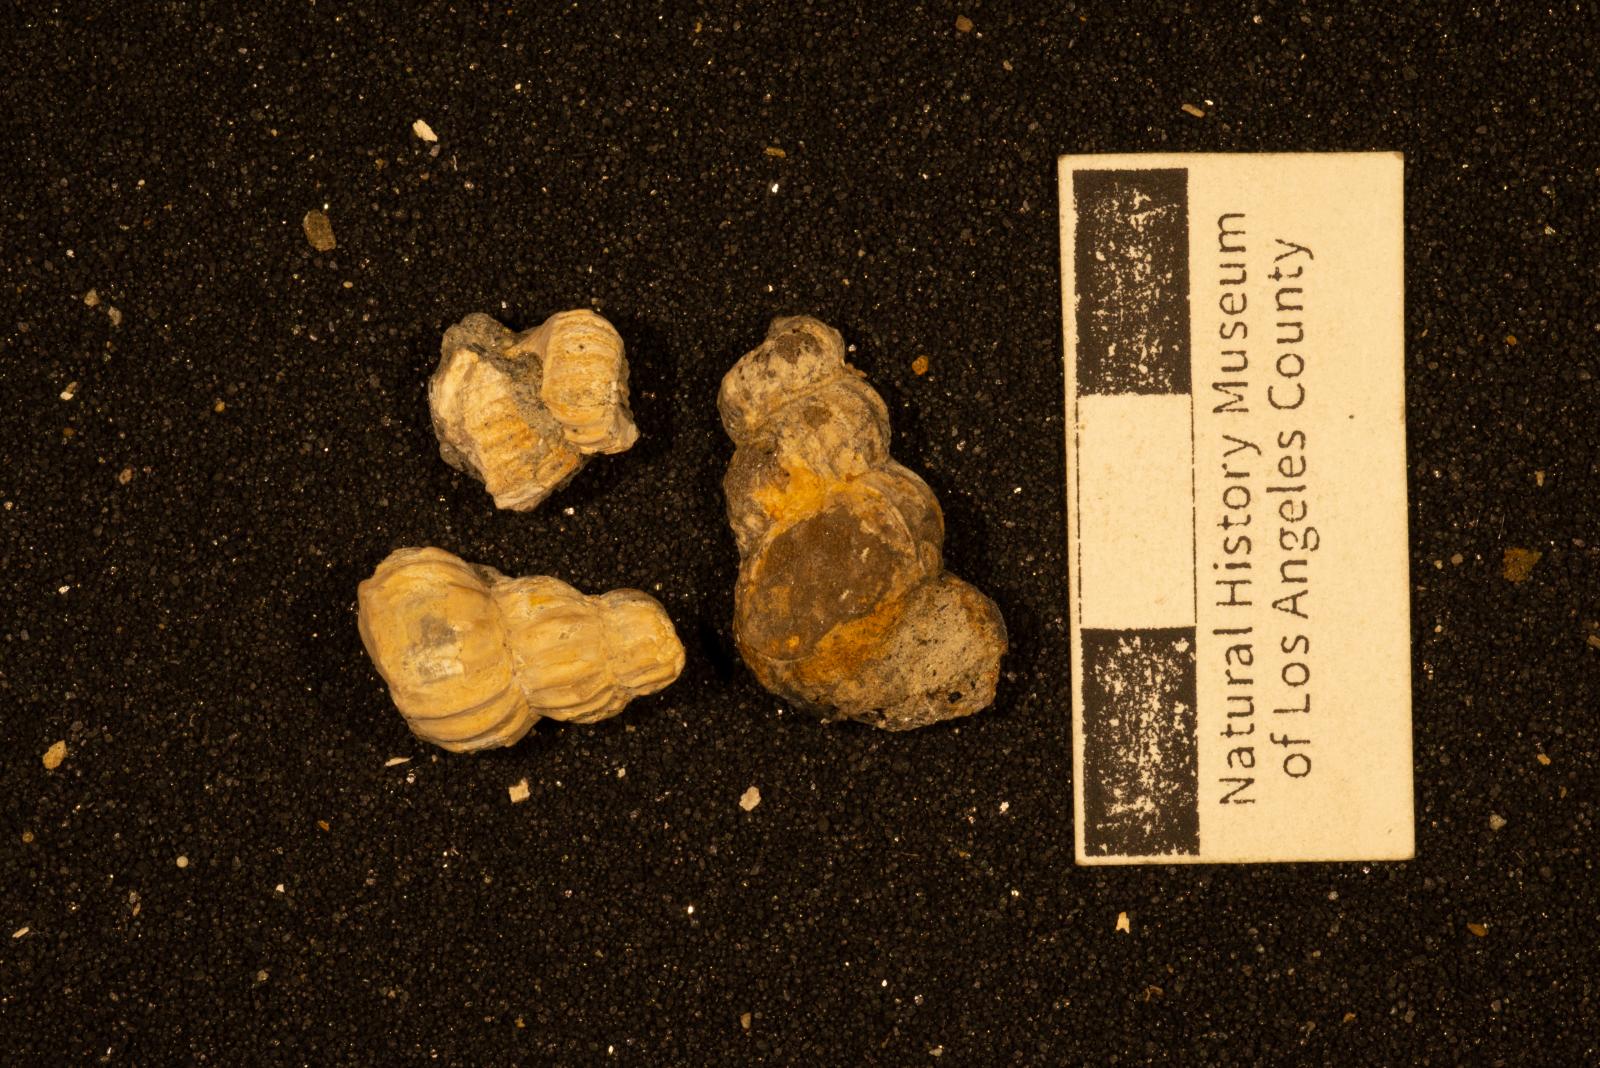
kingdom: Animalia
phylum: Mollusca
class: Gastropoda
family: Epitoniidae
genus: Opalia
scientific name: Opalia cavea
